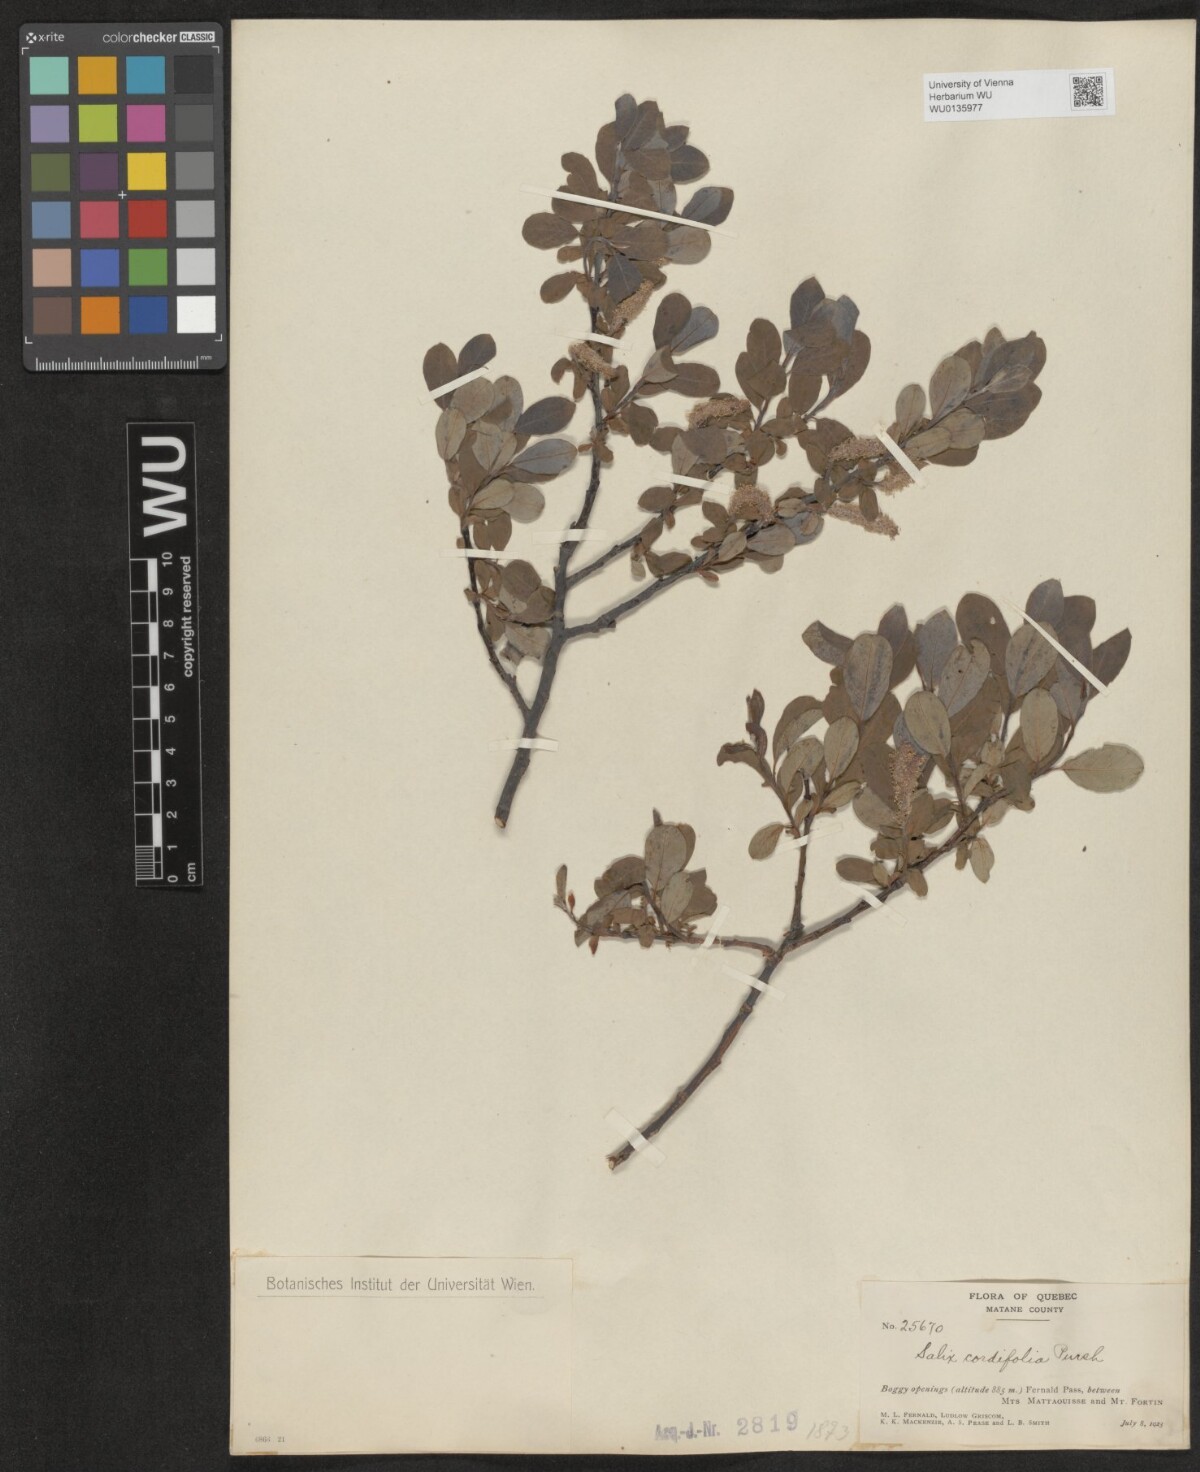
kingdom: Plantae
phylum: Tracheophyta
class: Magnoliopsida
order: Malpighiales
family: Salicaceae
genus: Salix
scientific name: Salix
